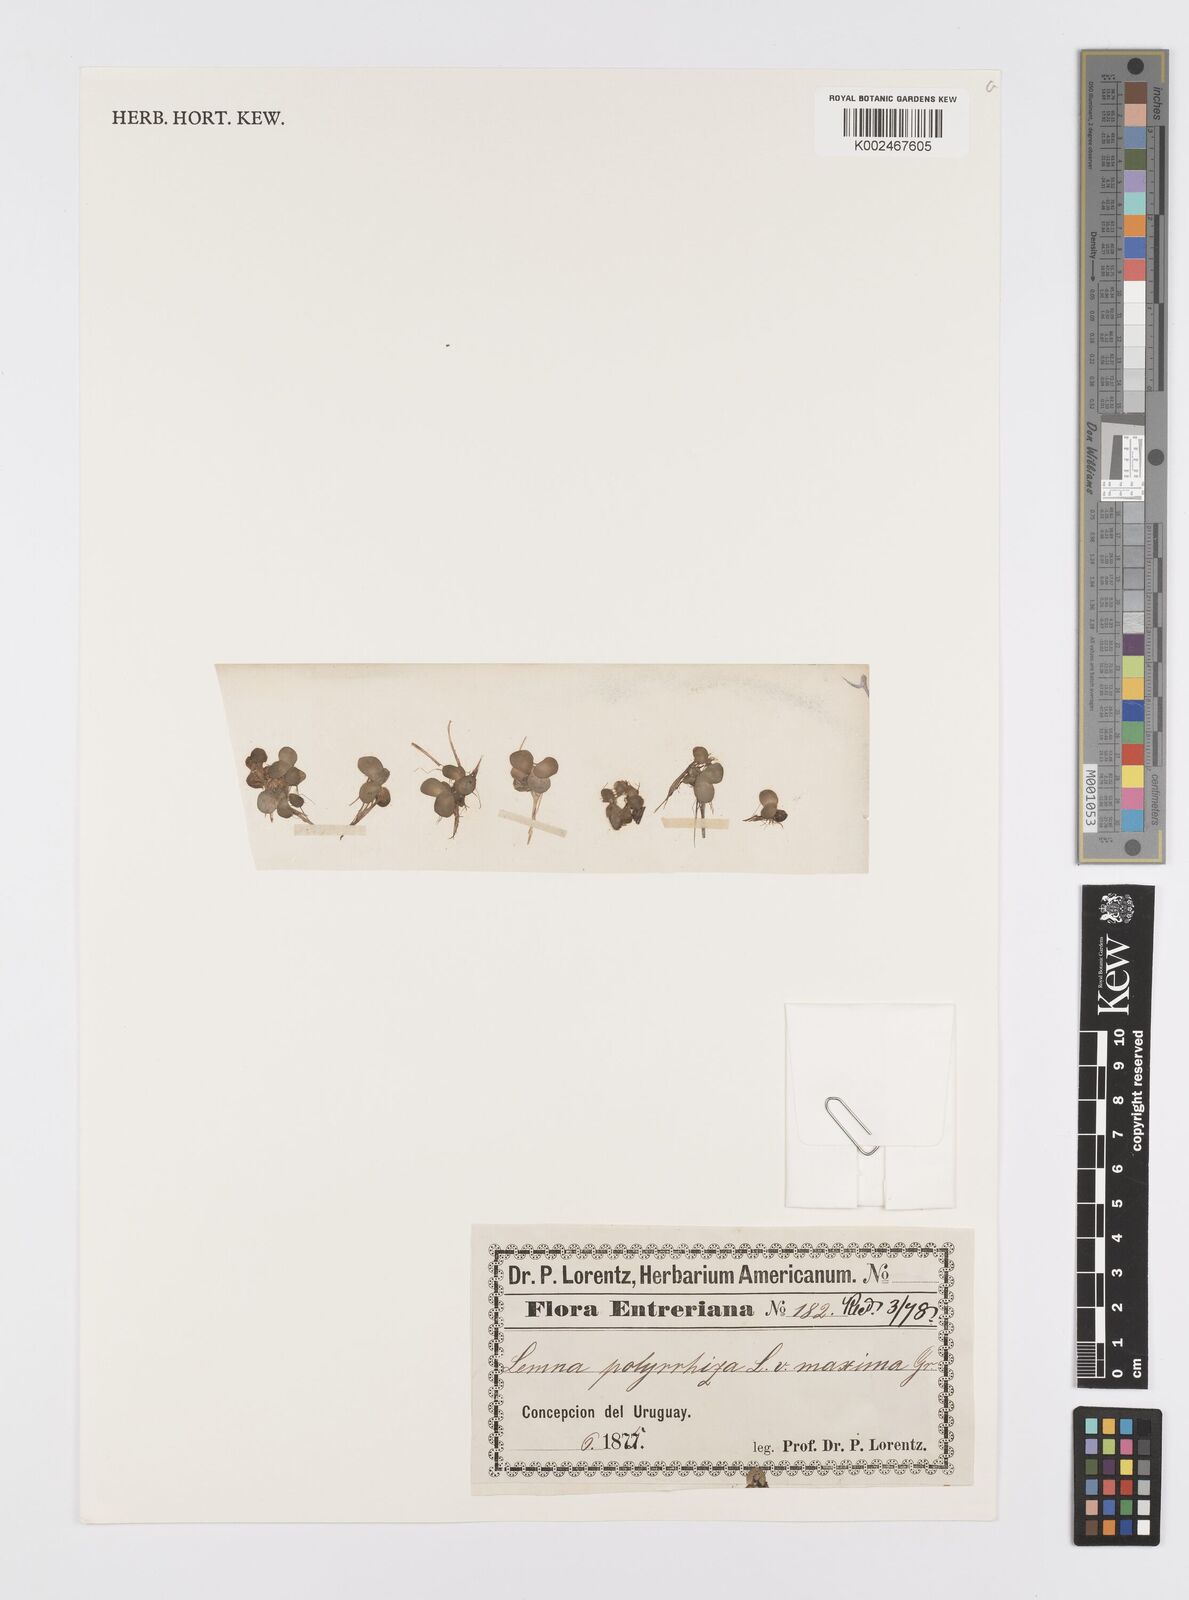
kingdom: Plantae
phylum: Tracheophyta
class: Liliopsida
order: Alismatales
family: Araceae
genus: Spirodela
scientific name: Spirodela polyrhiza
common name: Great duckweed
